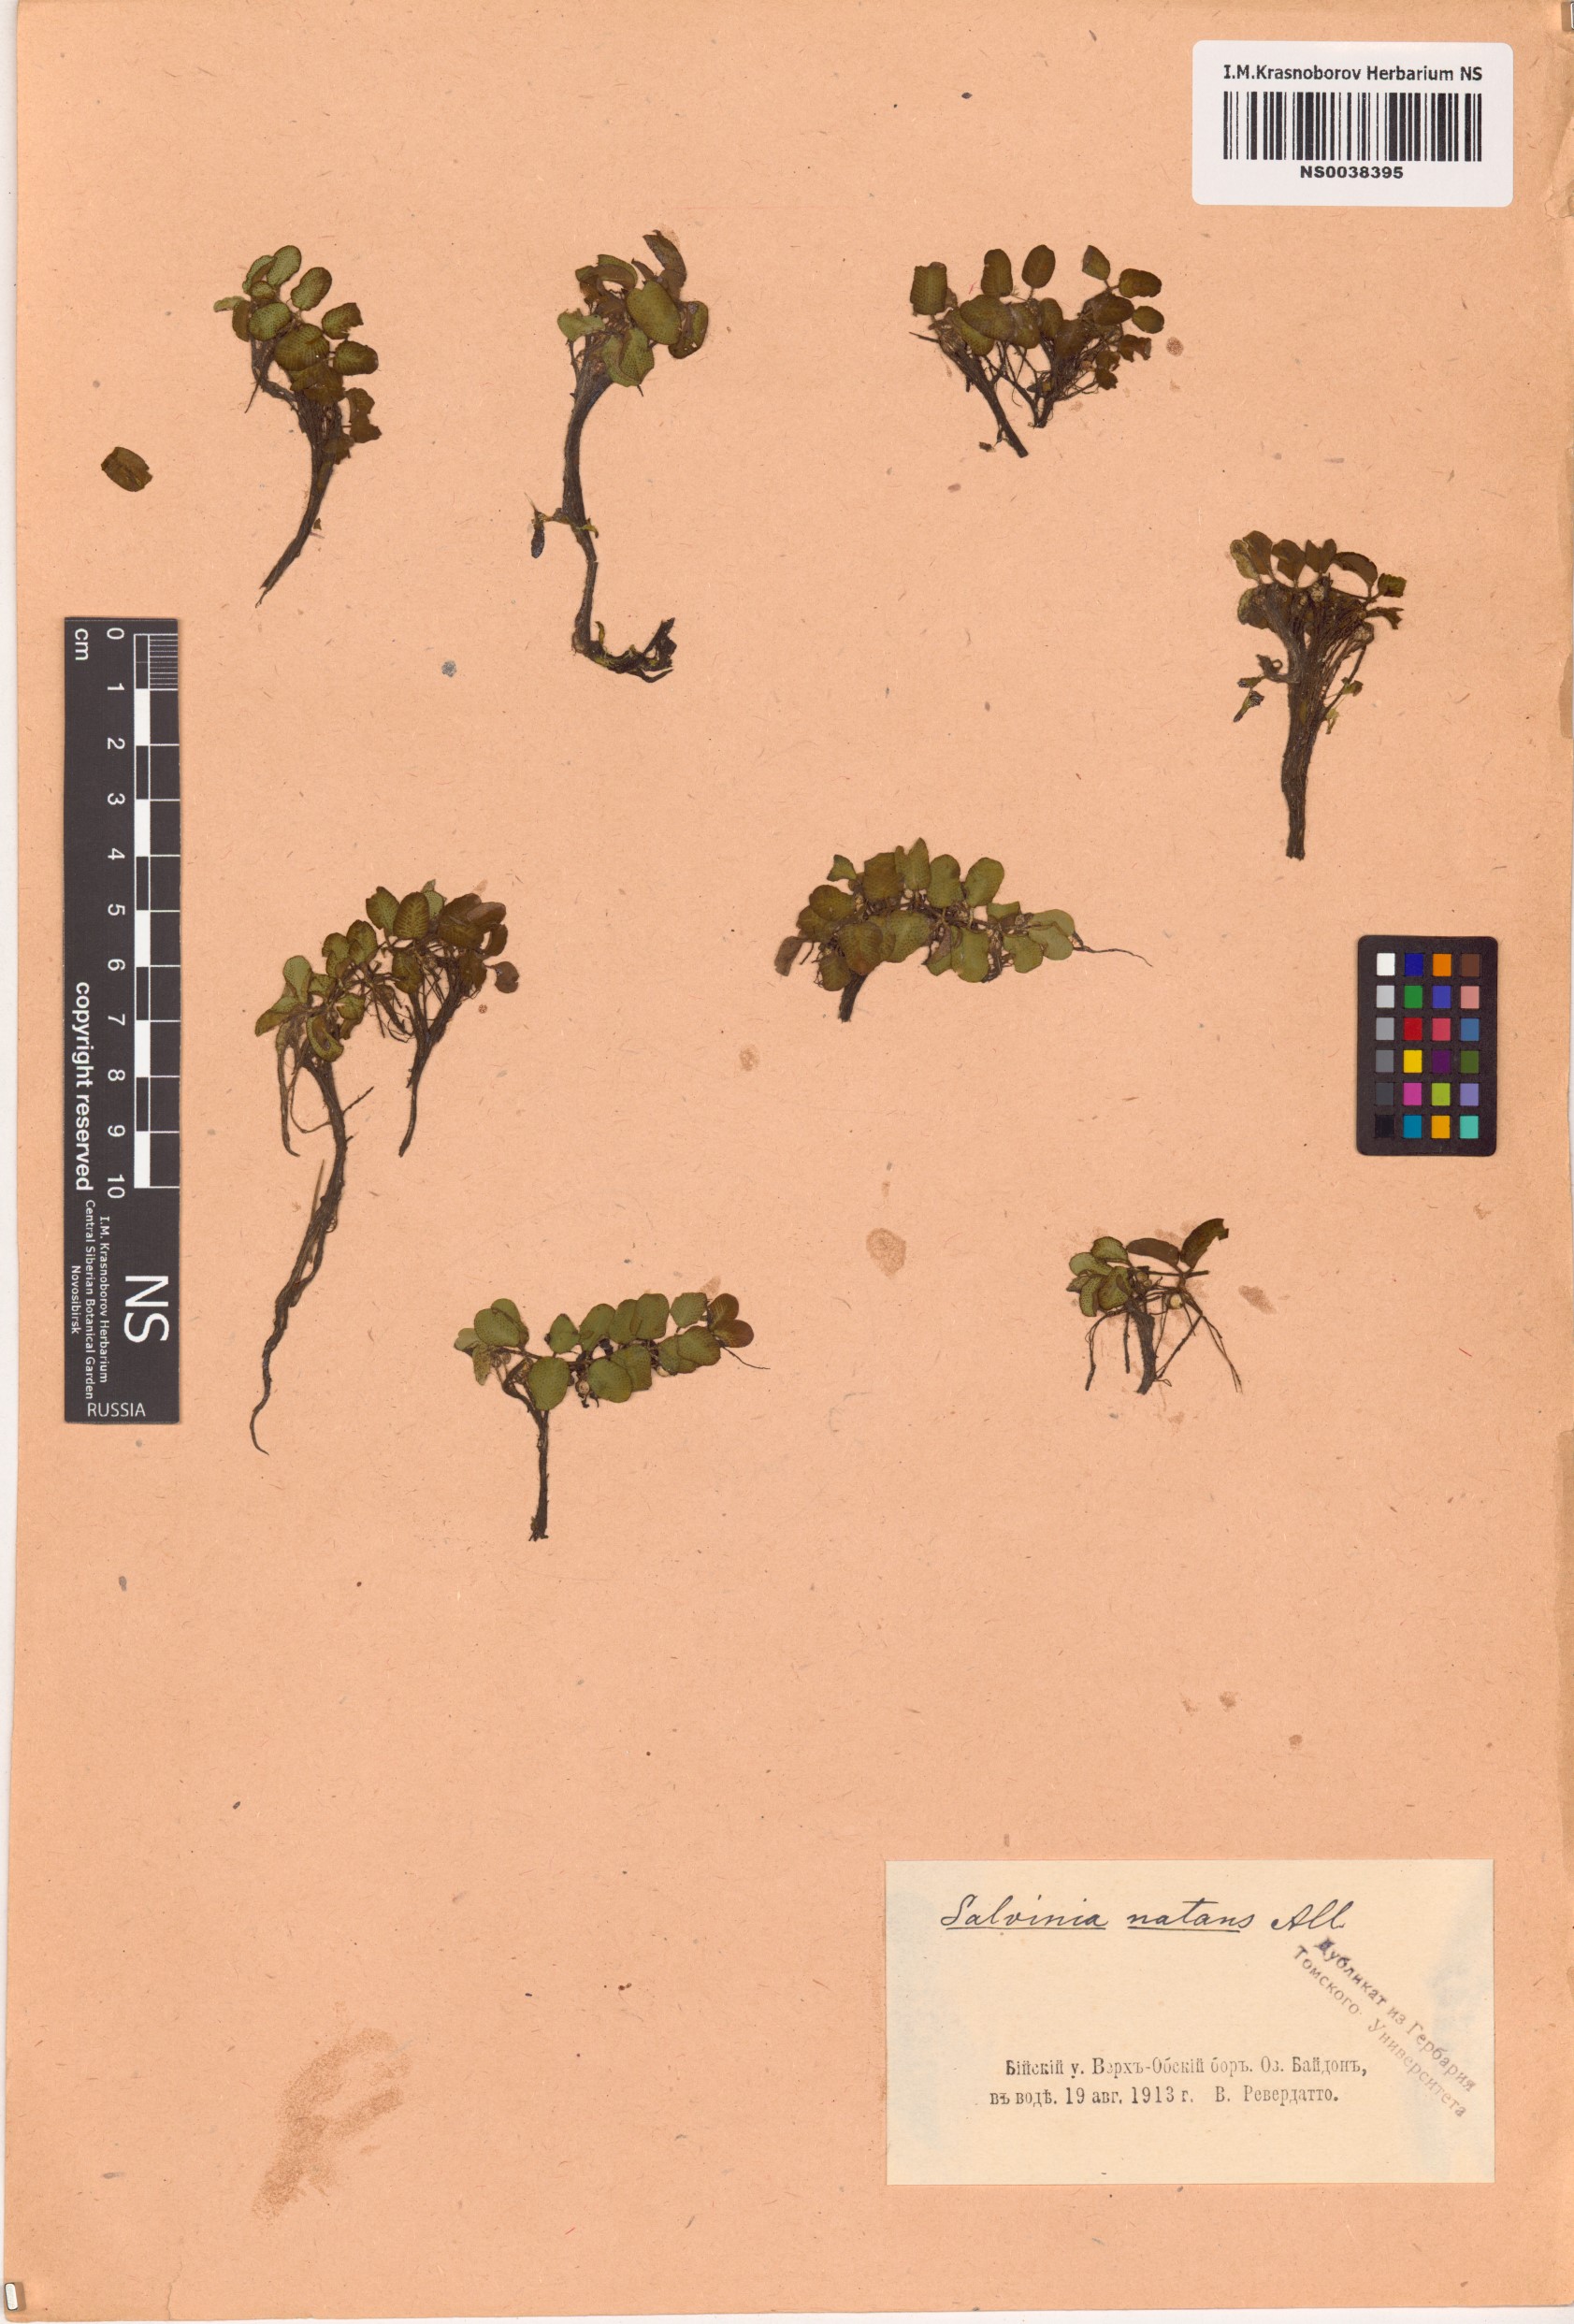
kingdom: Plantae
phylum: Tracheophyta
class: Polypodiopsida
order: Salviniales
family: Salviniaceae
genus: Salvinia
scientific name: Salvinia natans
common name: Floating fern
